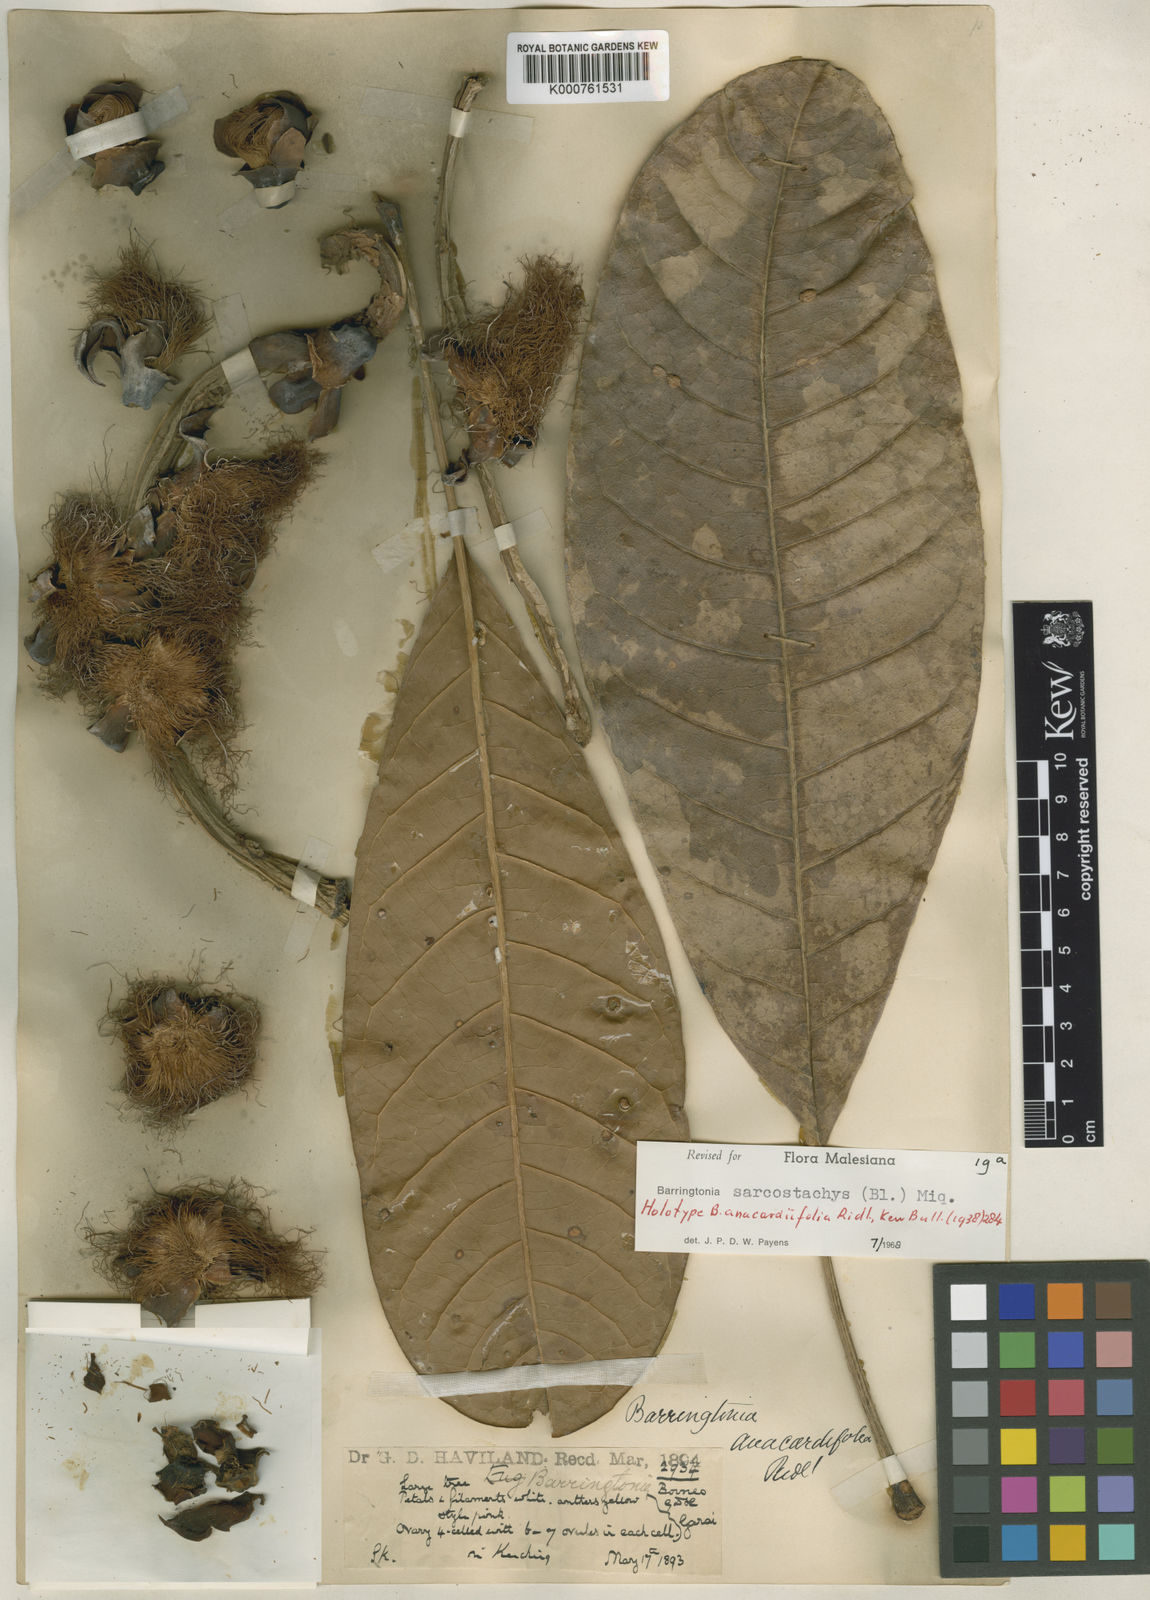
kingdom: Plantae
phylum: Tracheophyta
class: Magnoliopsida
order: Ericales
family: Lecythidaceae
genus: Barringtonia
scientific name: Barringtonia sarcostachys
